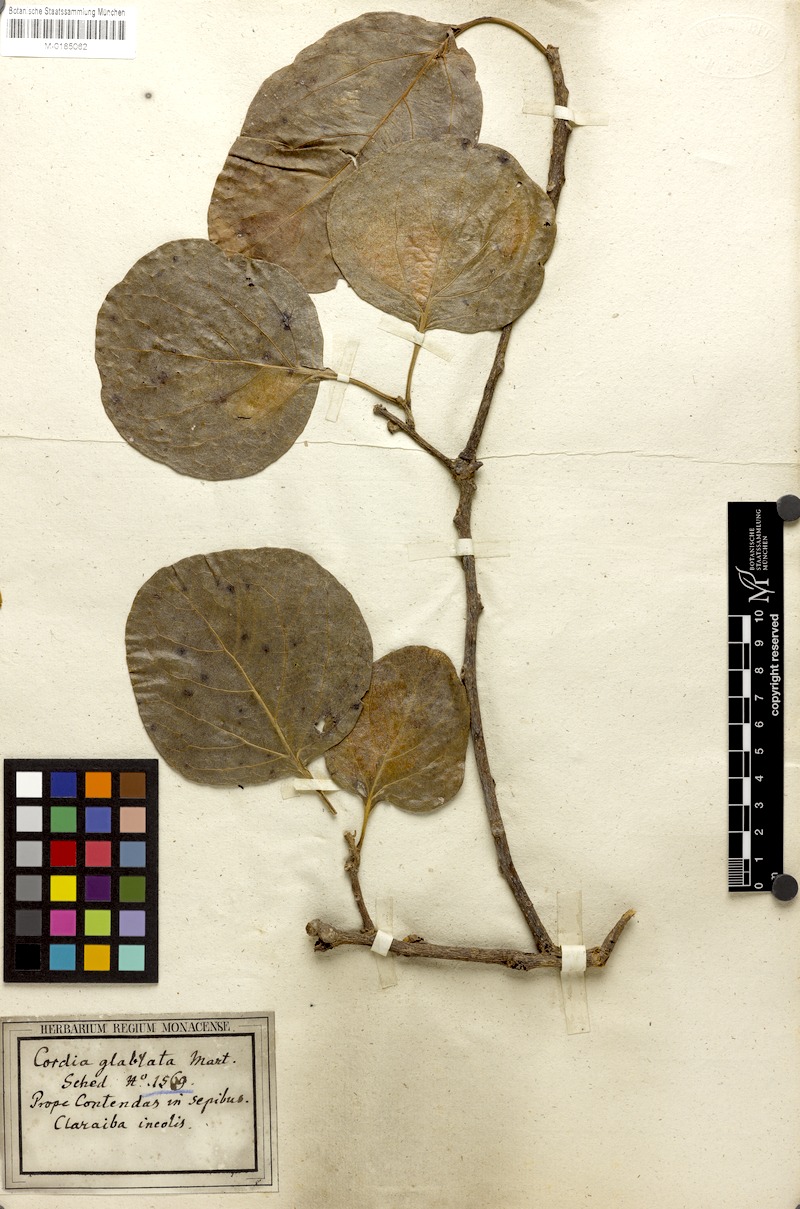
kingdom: Plantae
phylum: Tracheophyta
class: Magnoliopsida
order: Boraginales
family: Cordiaceae
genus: Cordia
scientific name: Cordia glabrata
